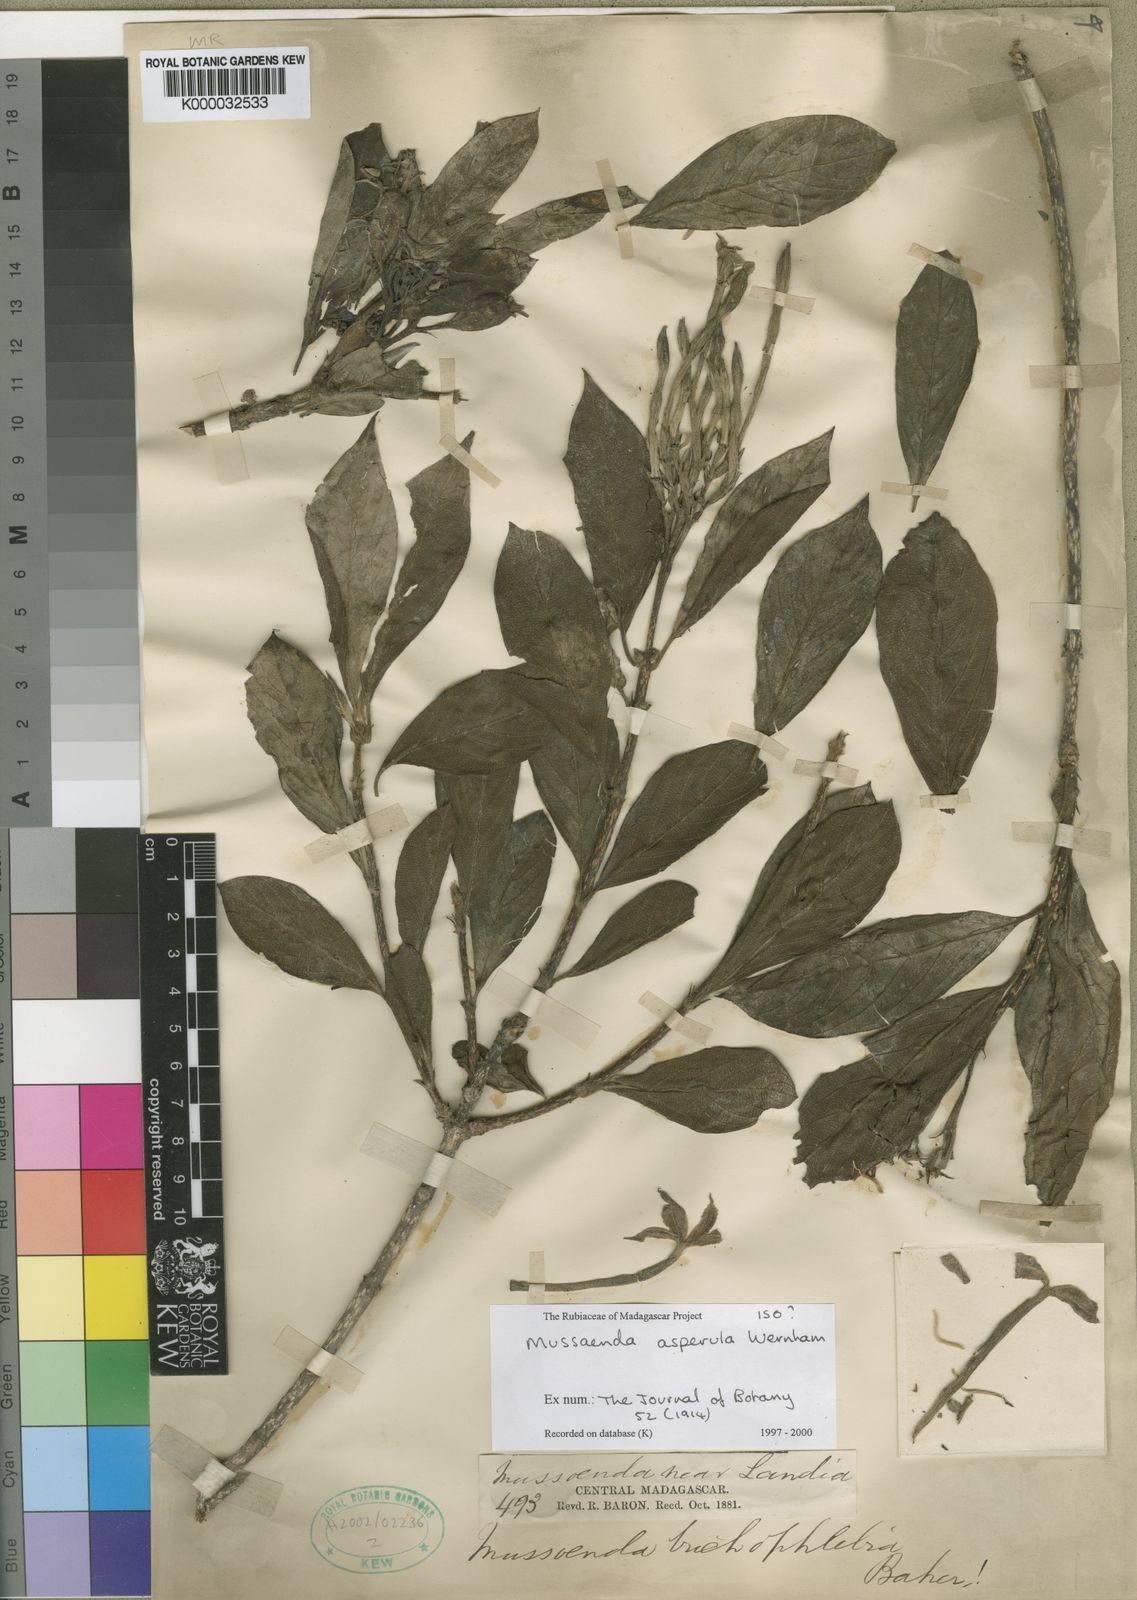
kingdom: Plantae
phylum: Tracheophyta
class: Magnoliopsida
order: Gentianales
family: Rubiaceae
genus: Bremeria
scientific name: Bremeria trichophlebia
